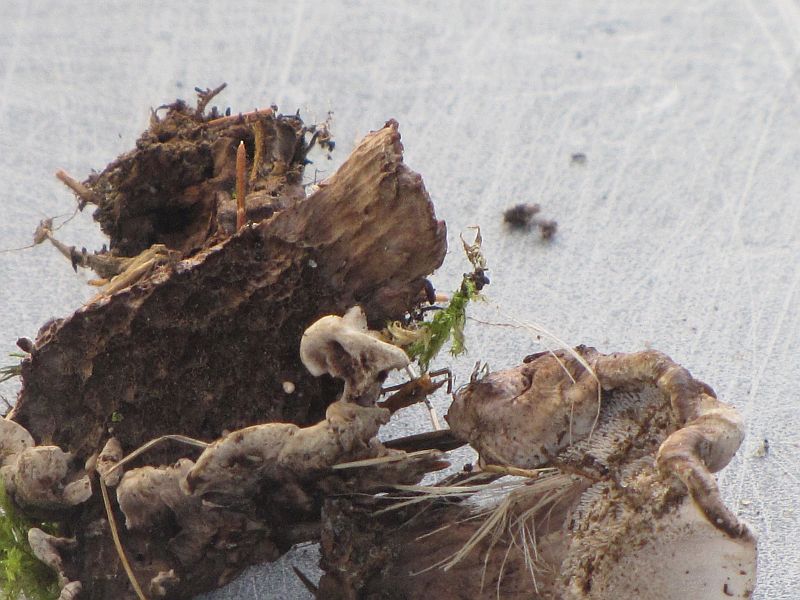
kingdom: Fungi
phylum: Basidiomycota
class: Agaricomycetes
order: Thelephorales
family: Thelephoraceae
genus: Phellodon
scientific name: Phellodon
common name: mørk duftpigsvamp
